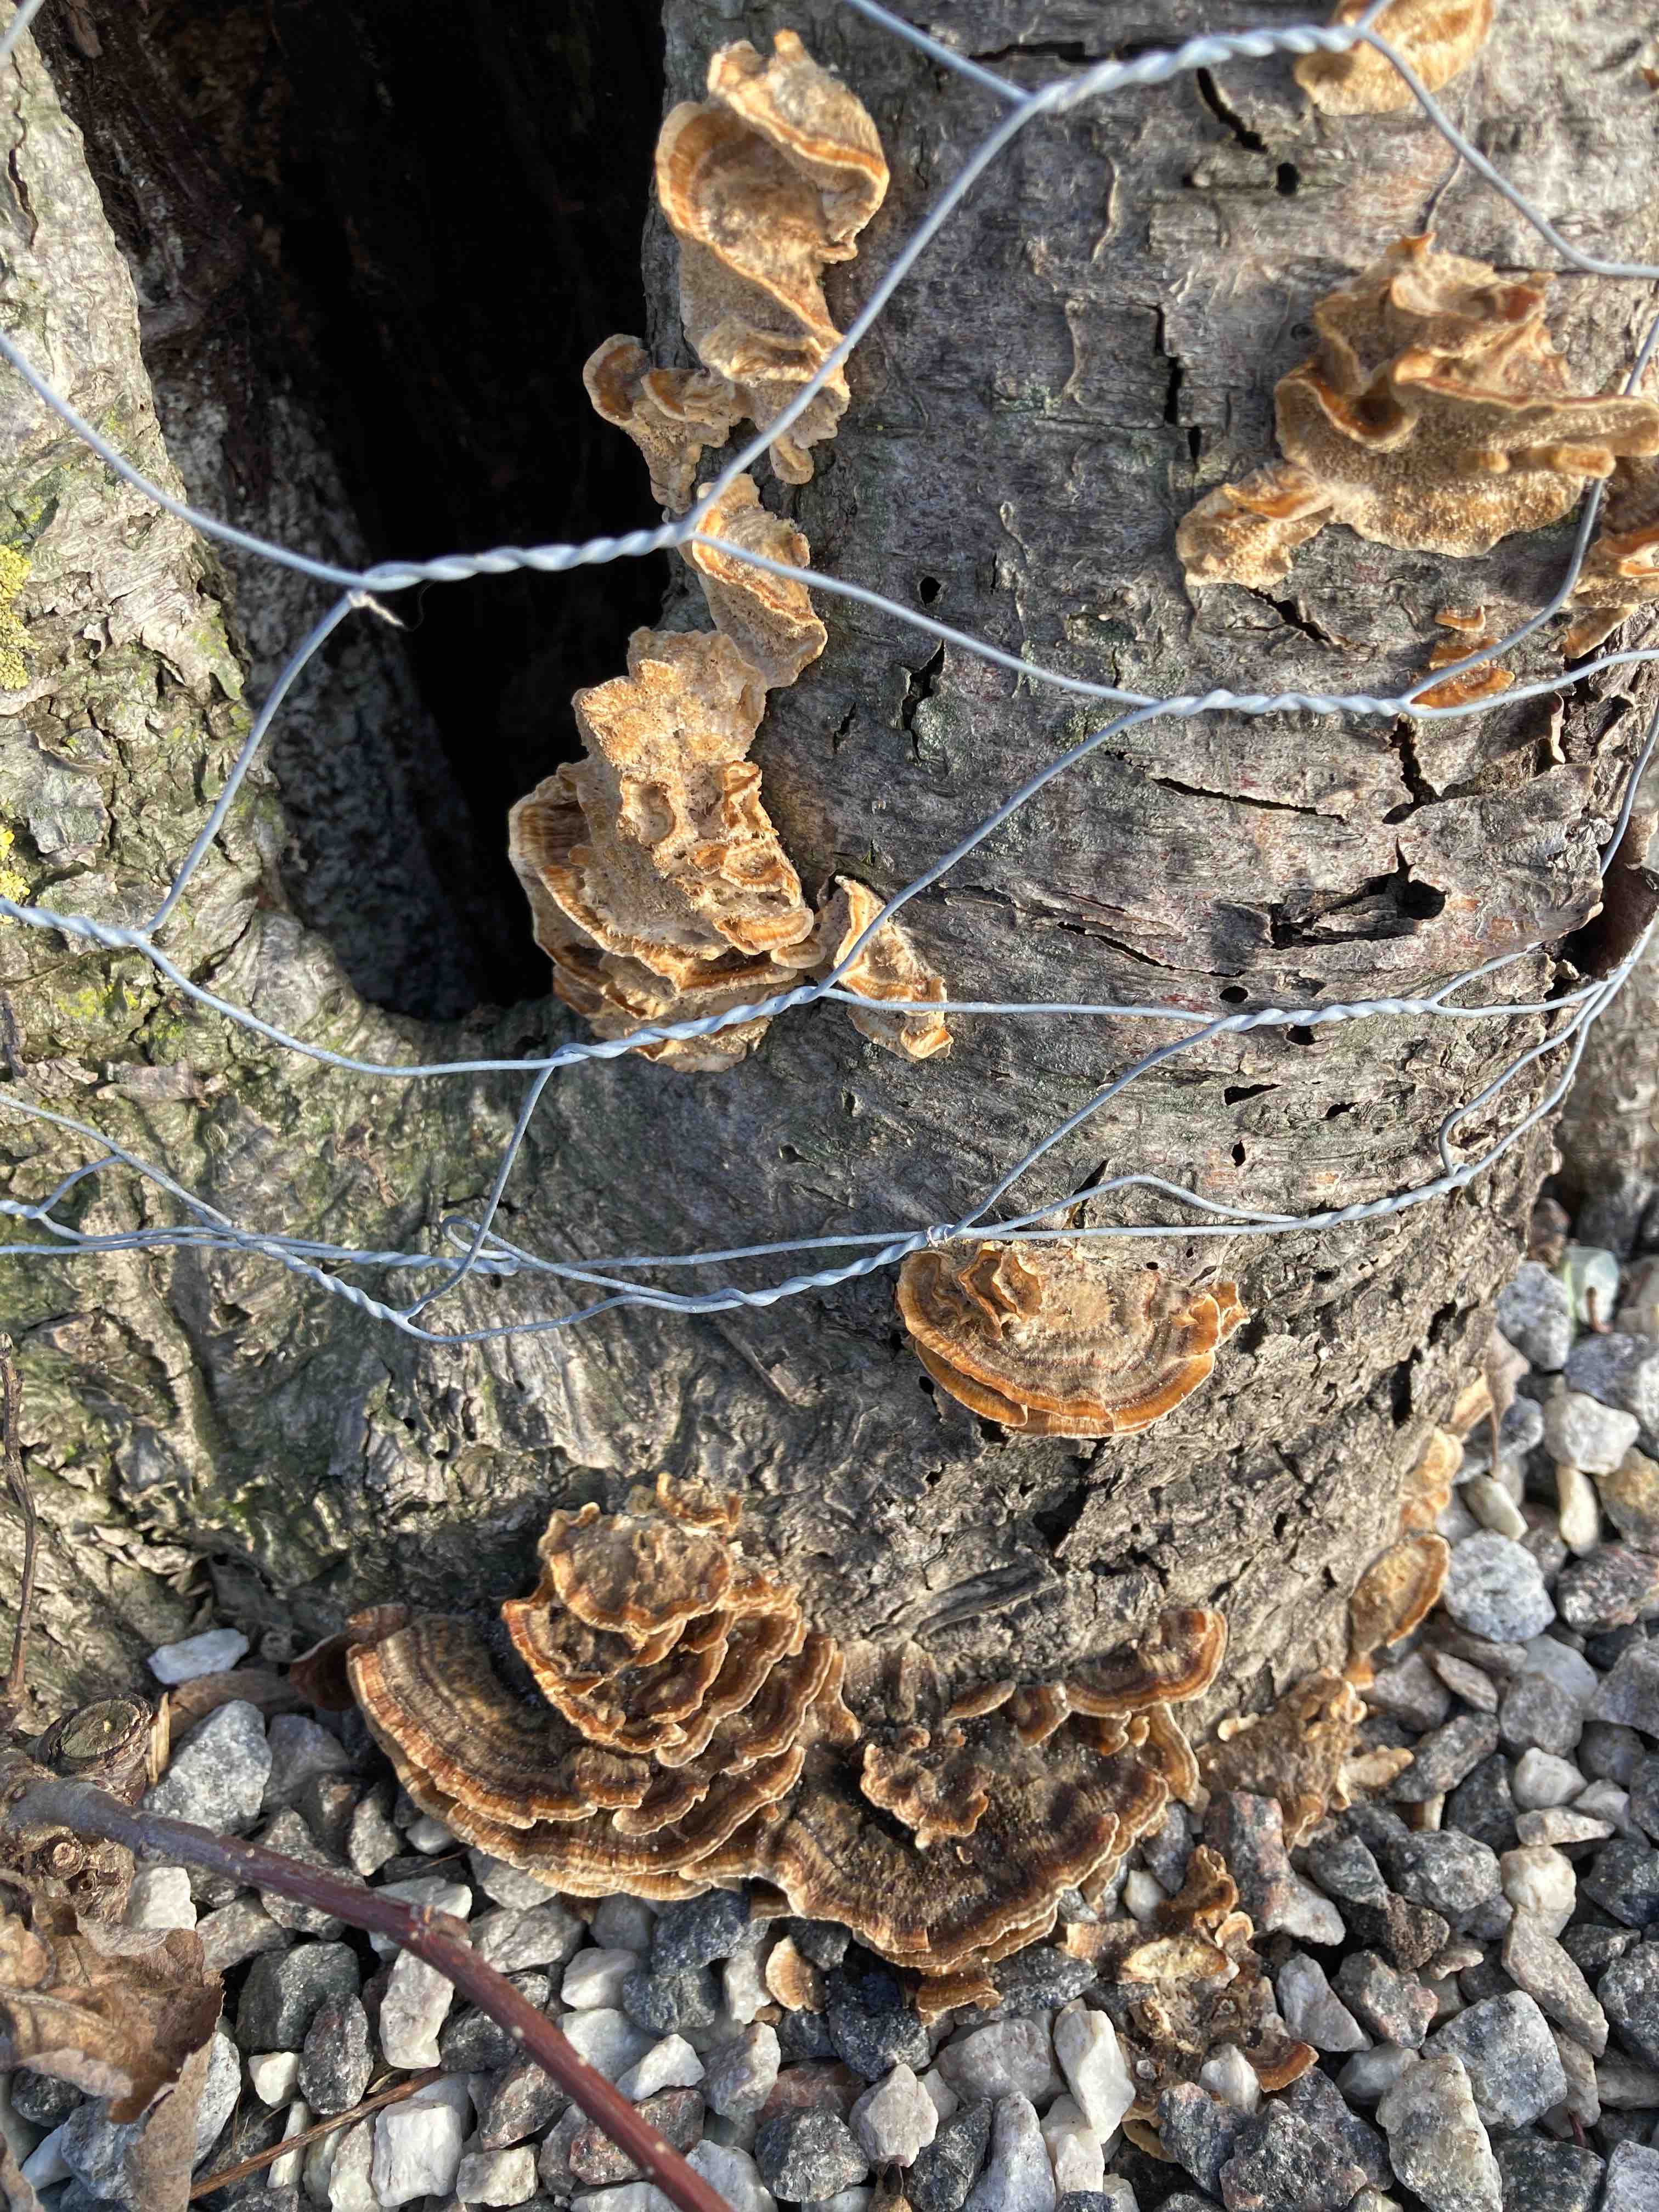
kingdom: Fungi
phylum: Basidiomycota
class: Agaricomycetes
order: Polyporales
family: Polyporaceae
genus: Trametes
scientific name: Trametes versicolor
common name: broget læderporesvamp
